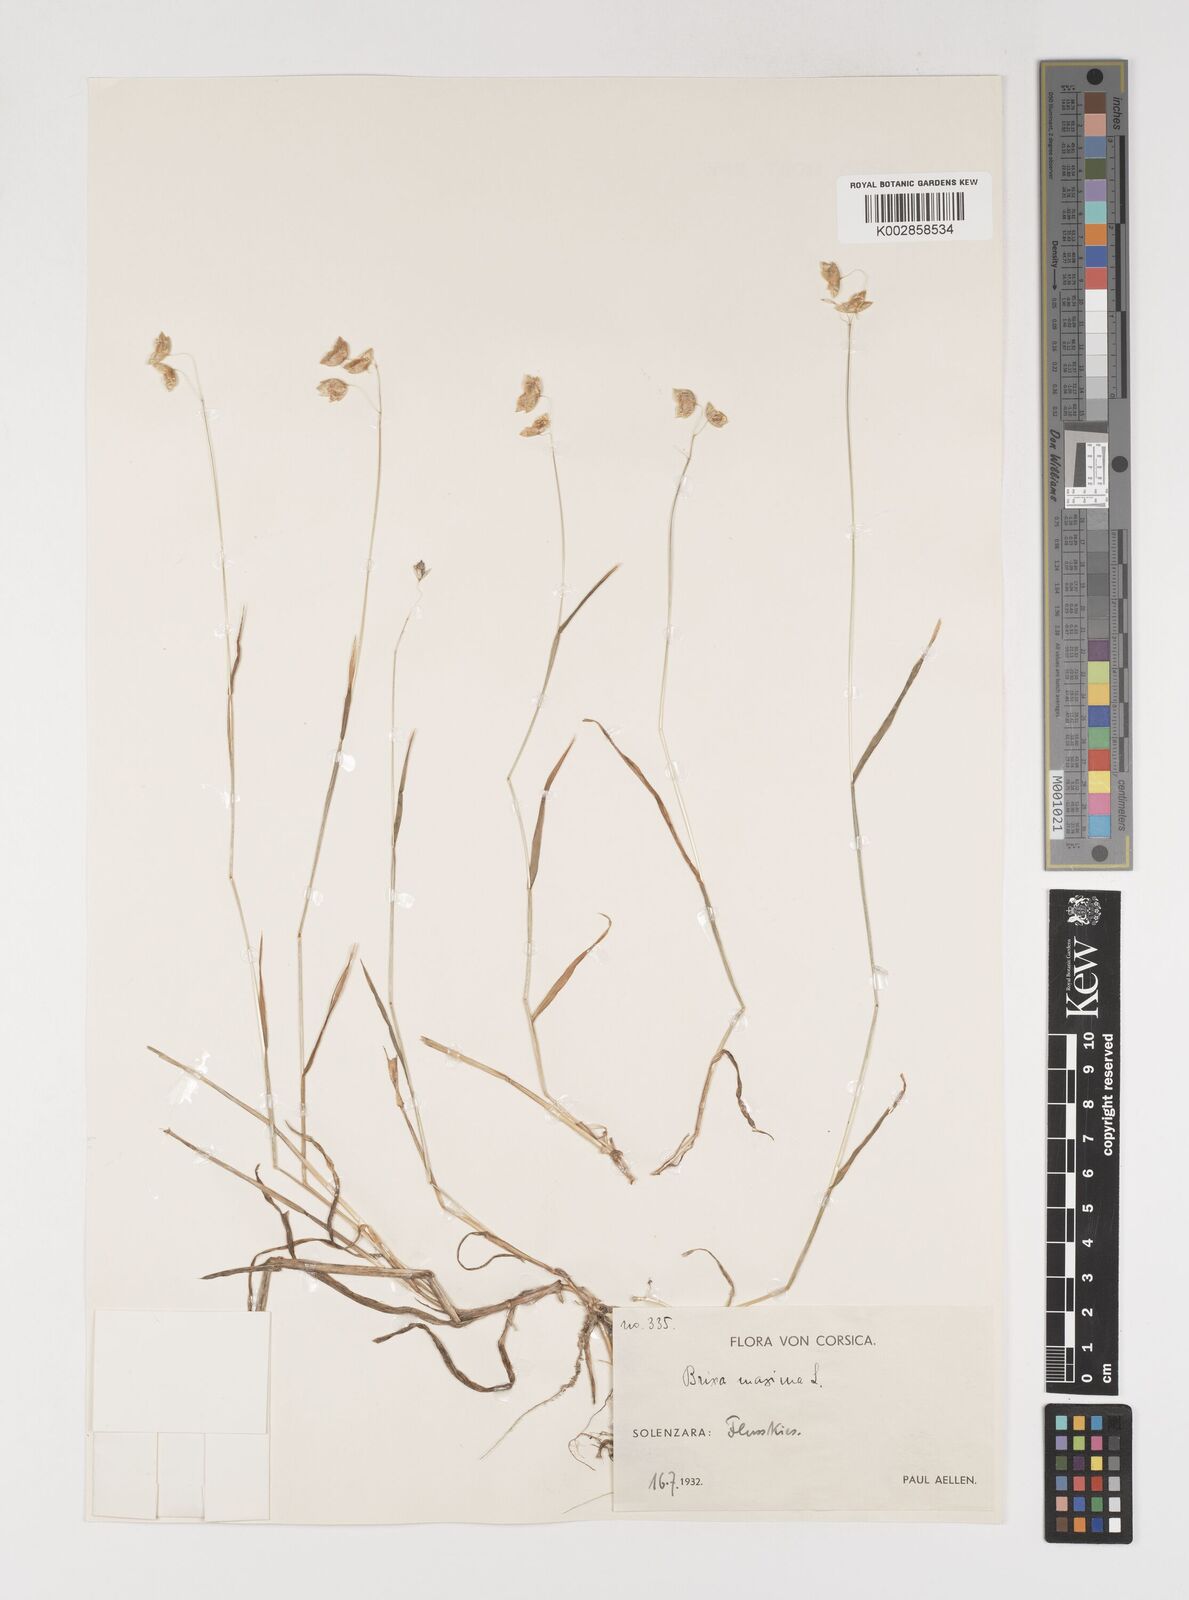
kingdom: Plantae
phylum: Tracheophyta
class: Liliopsida
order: Poales
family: Poaceae
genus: Briza
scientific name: Briza maxima
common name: Big quakinggrass
